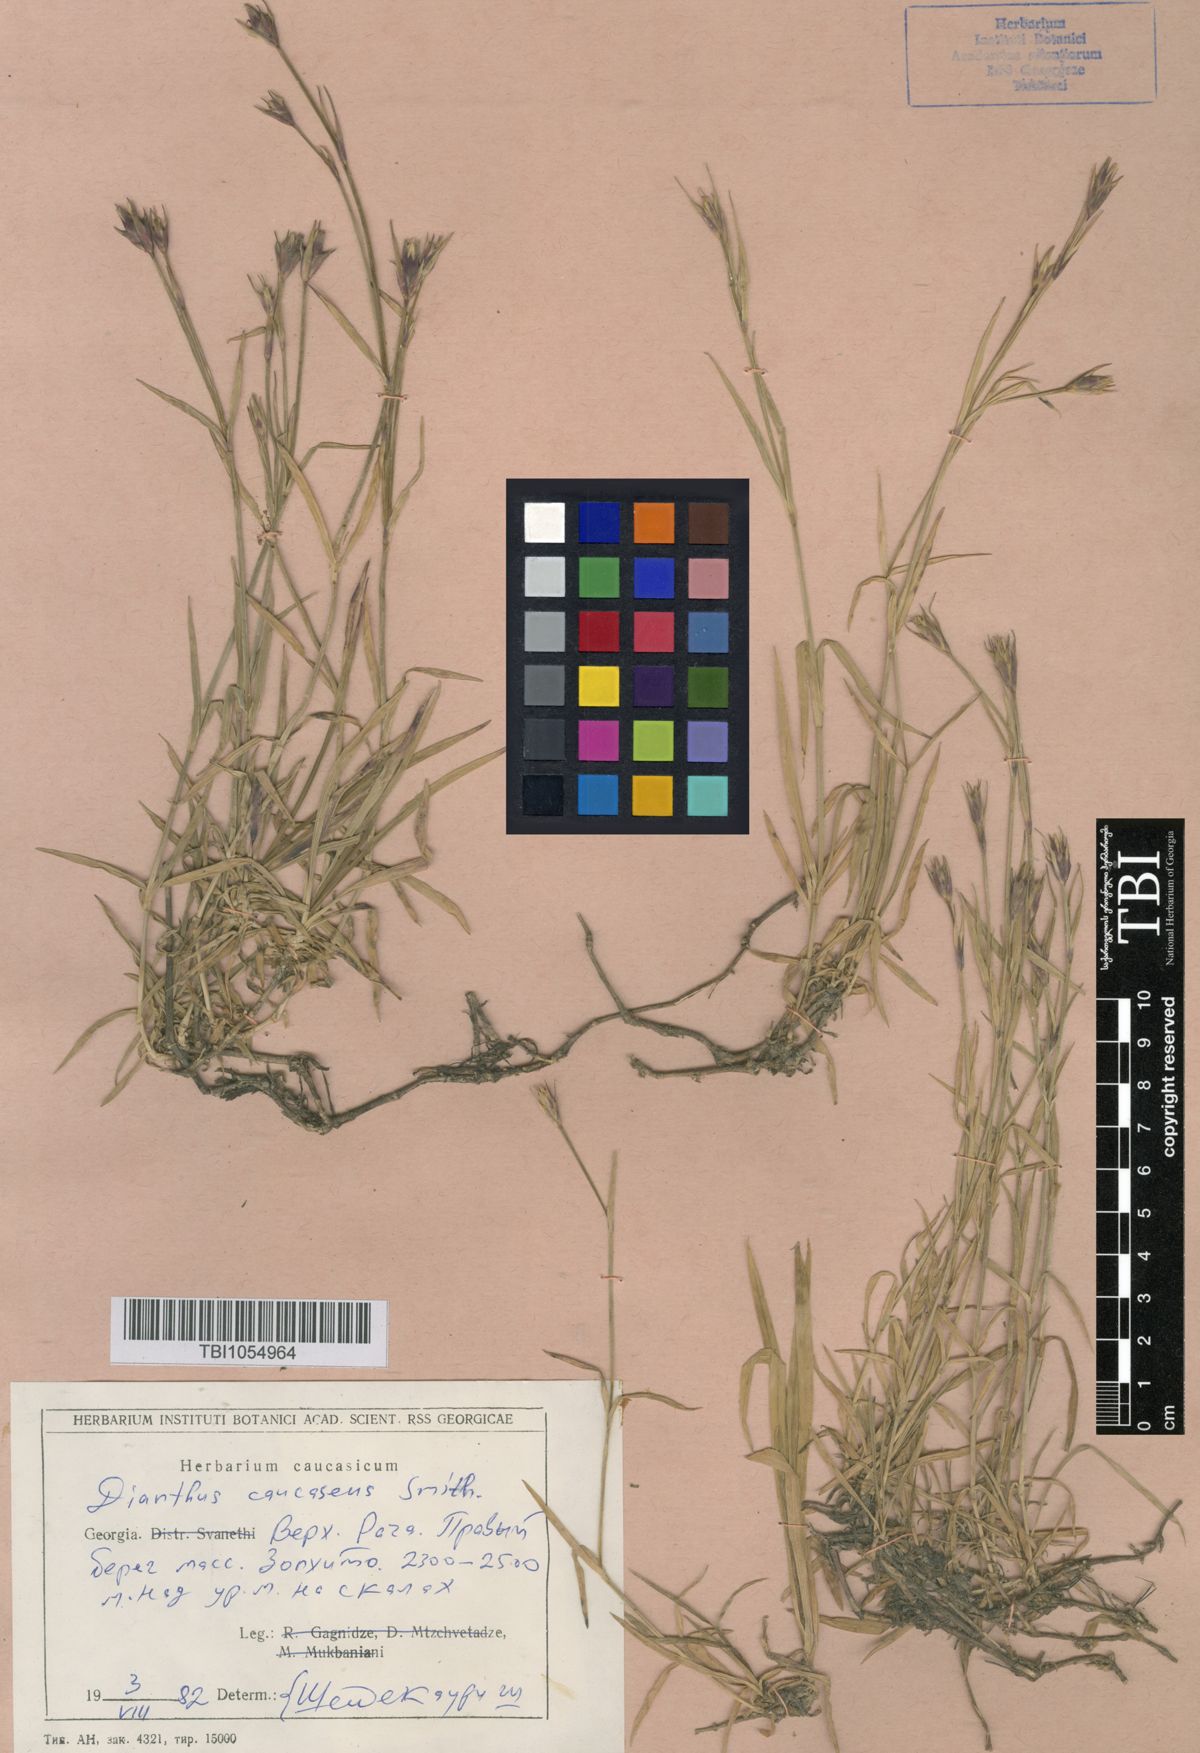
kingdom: Plantae
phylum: Tracheophyta
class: Magnoliopsida
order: Caryophyllales
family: Caryophyllaceae
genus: Dianthus
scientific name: Dianthus caucaseus
